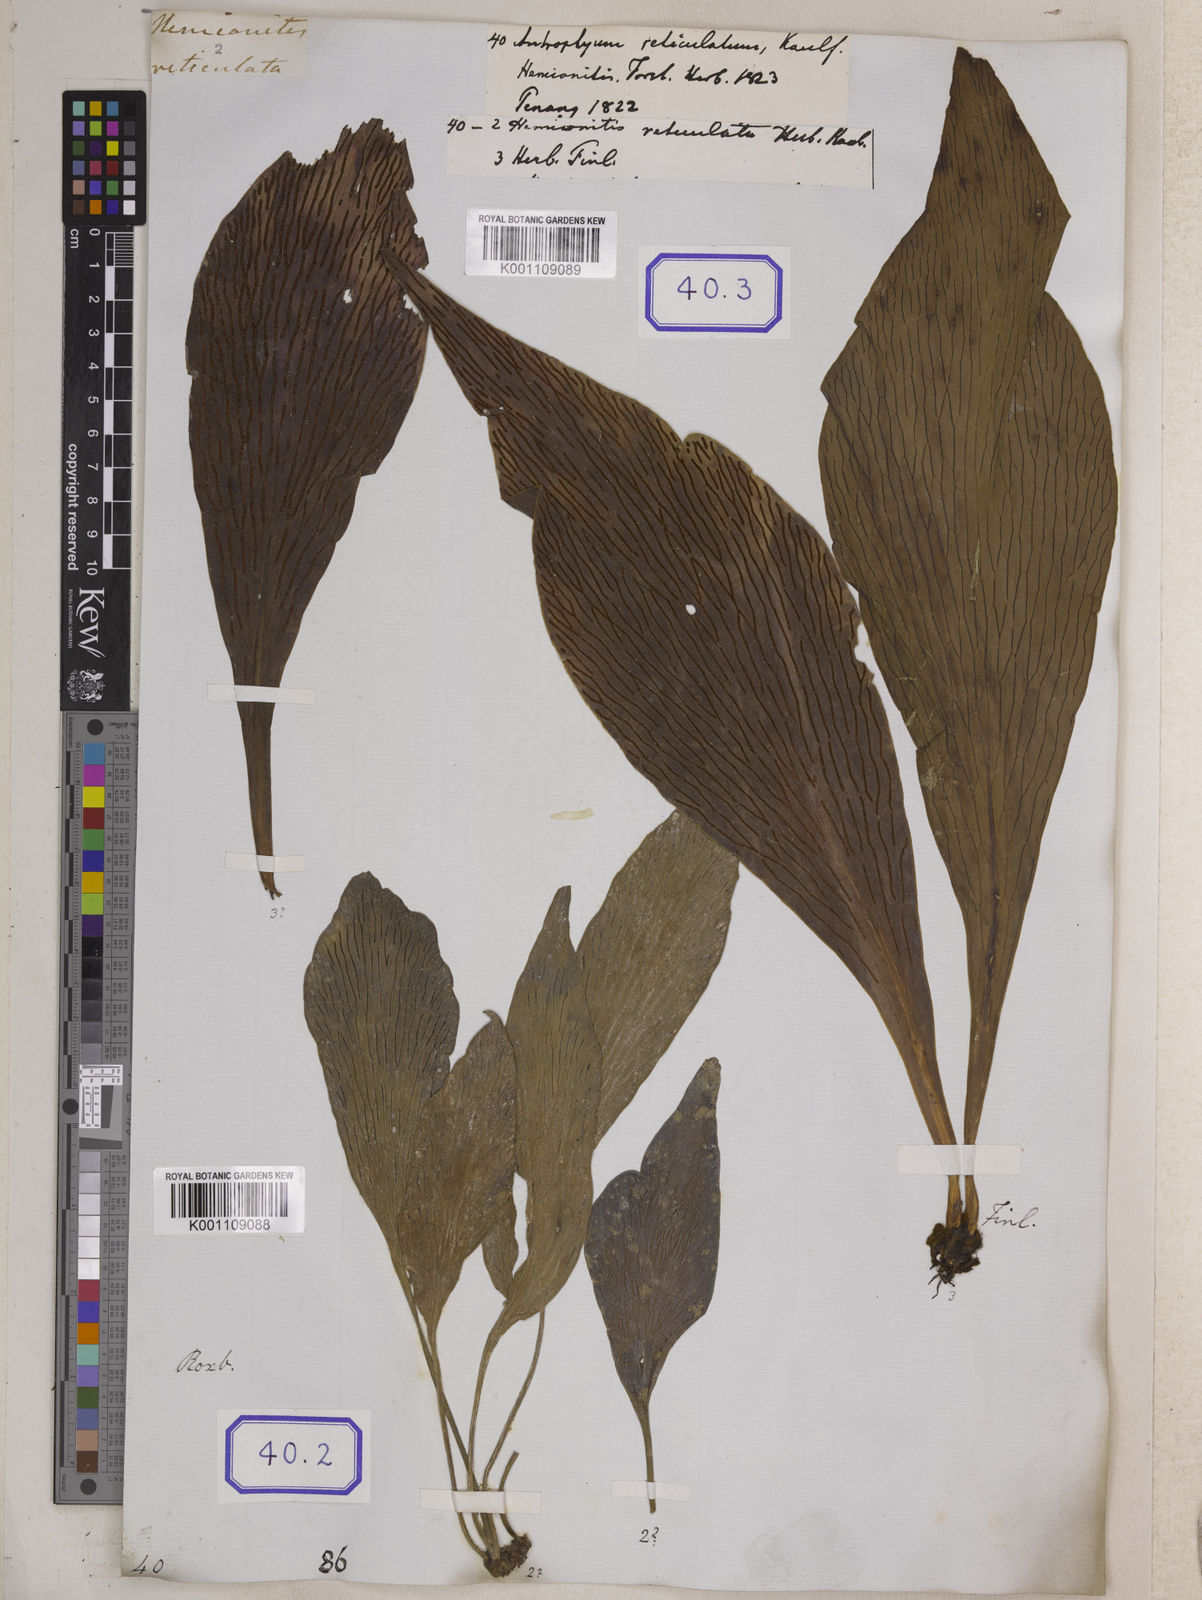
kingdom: Plantae
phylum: Tracheophyta
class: Polypodiopsida
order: Polypodiales
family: Pteridaceae
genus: Antrophyum
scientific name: Antrophyum reticulatum
